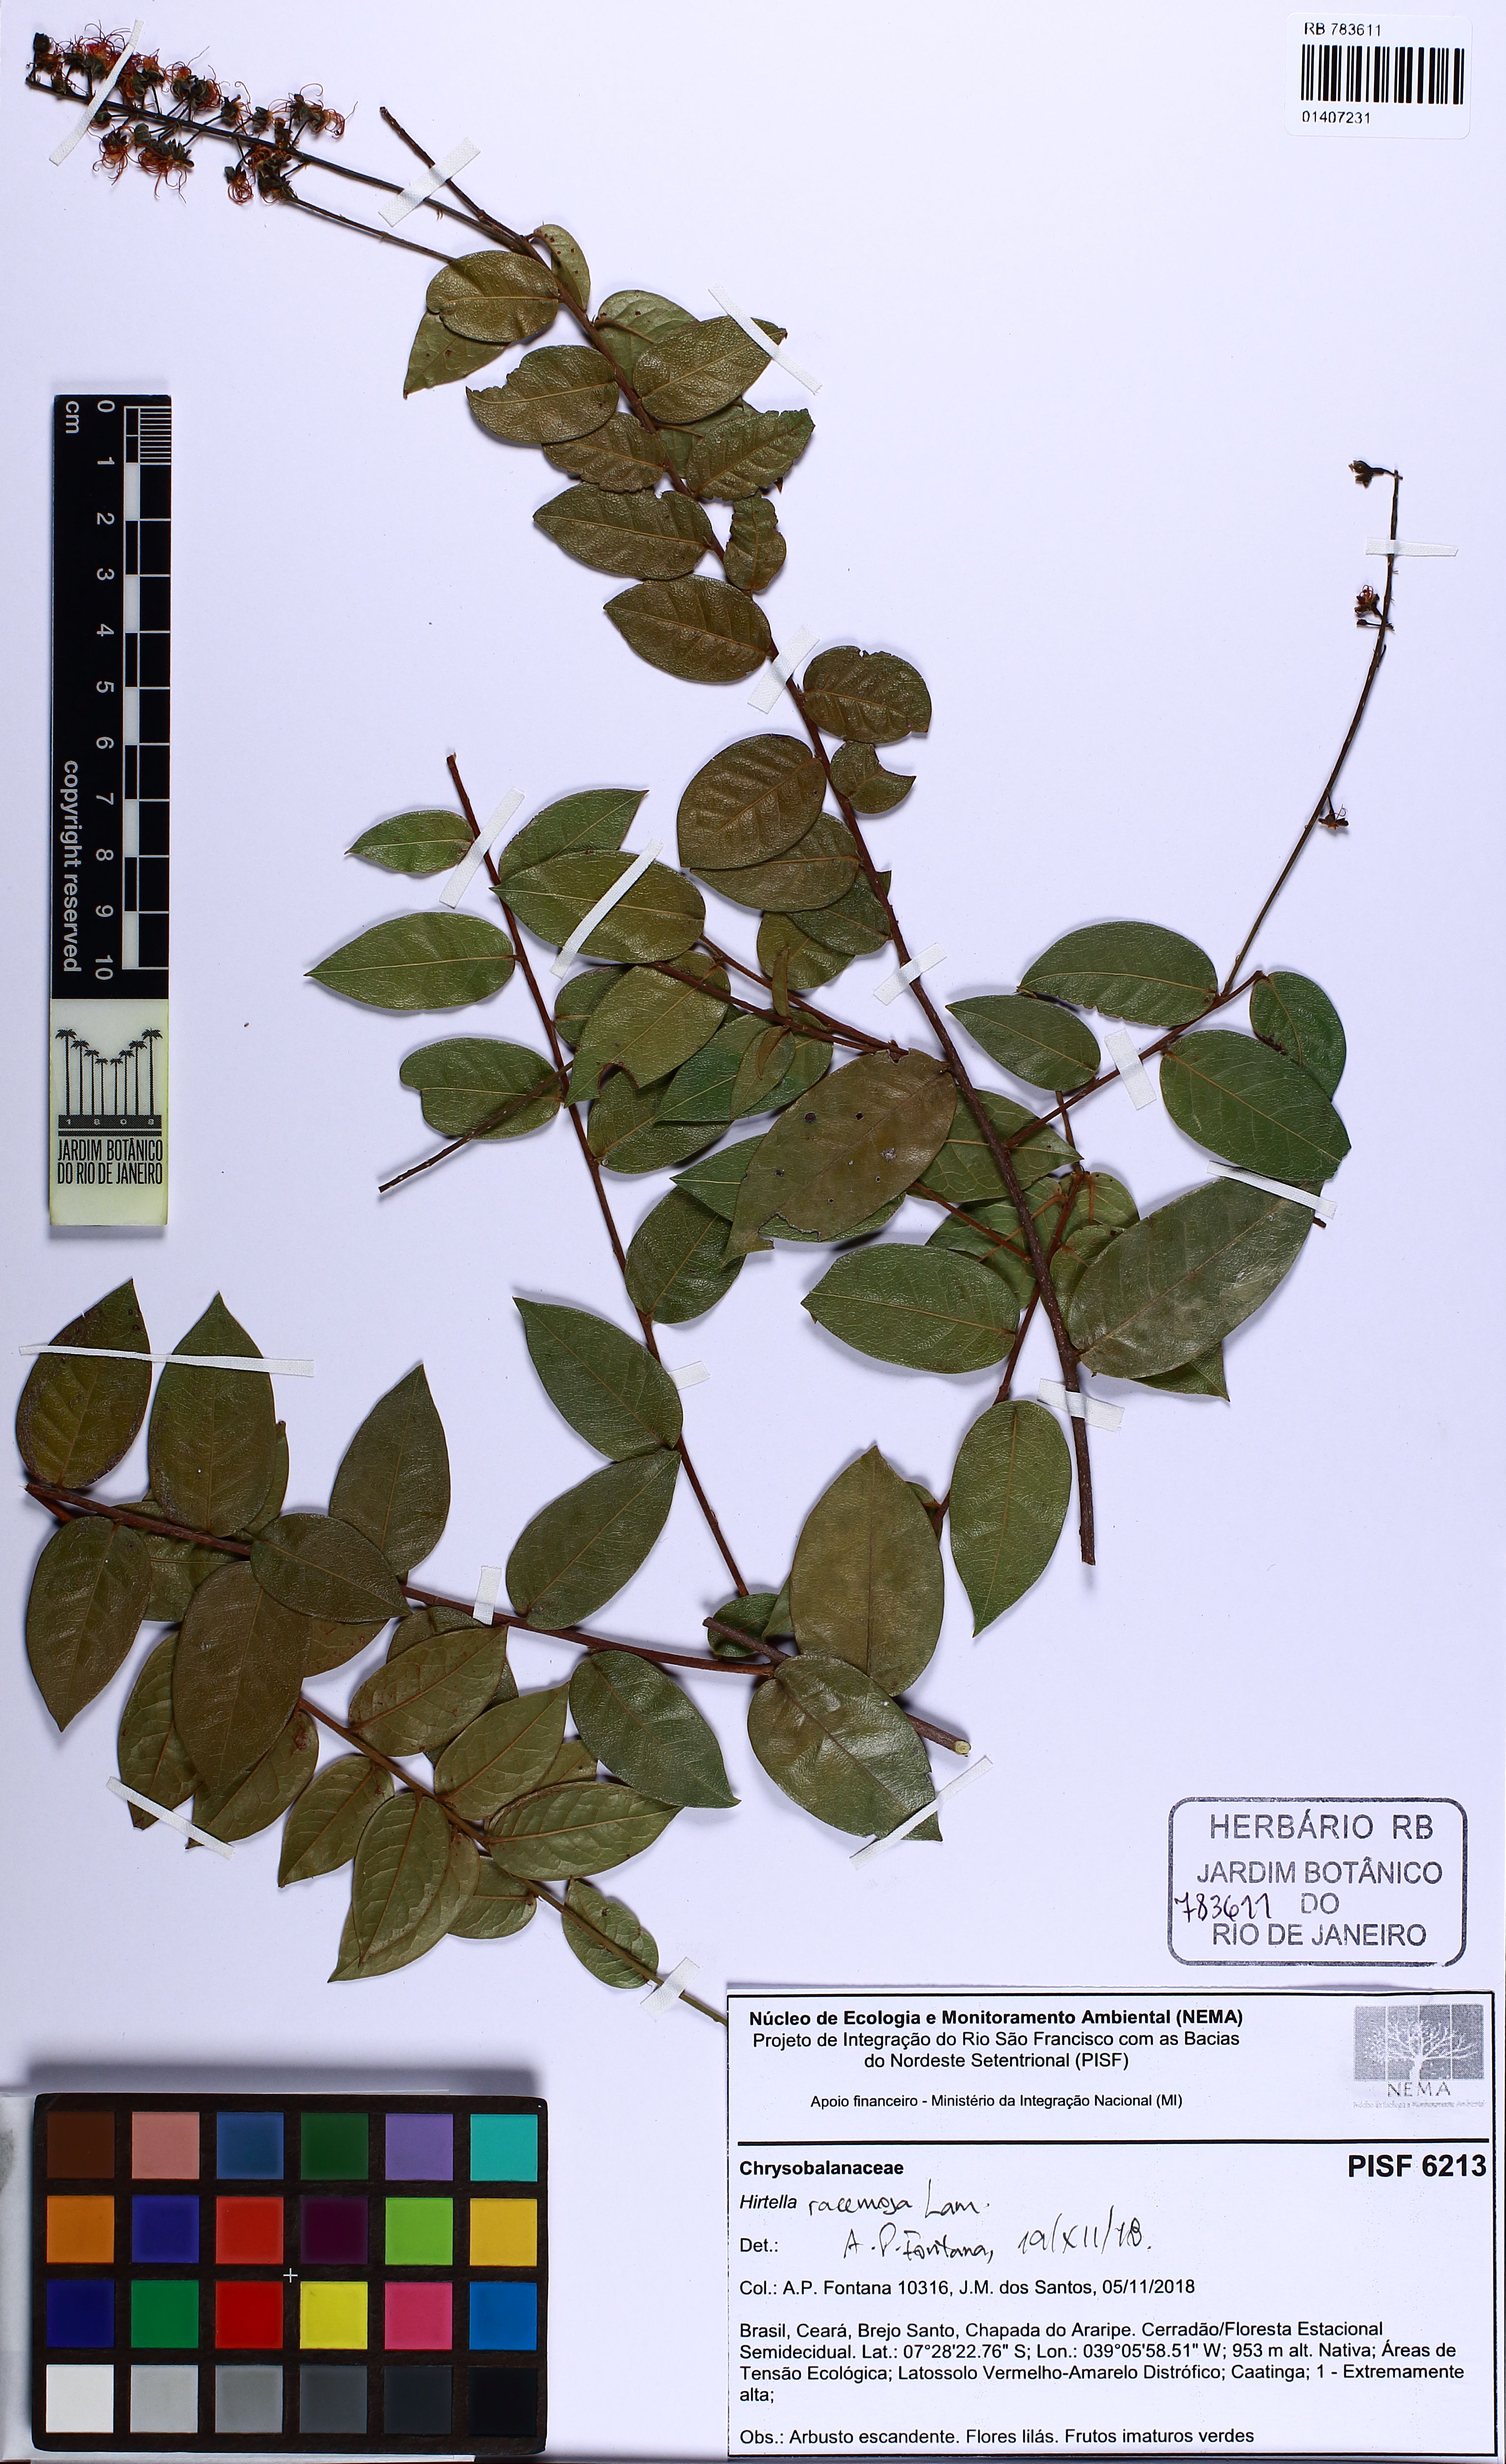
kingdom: Plantae
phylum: Tracheophyta
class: Magnoliopsida
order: Malpighiales
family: Chrysobalanaceae
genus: Hirtella
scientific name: Hirtella racemosa
